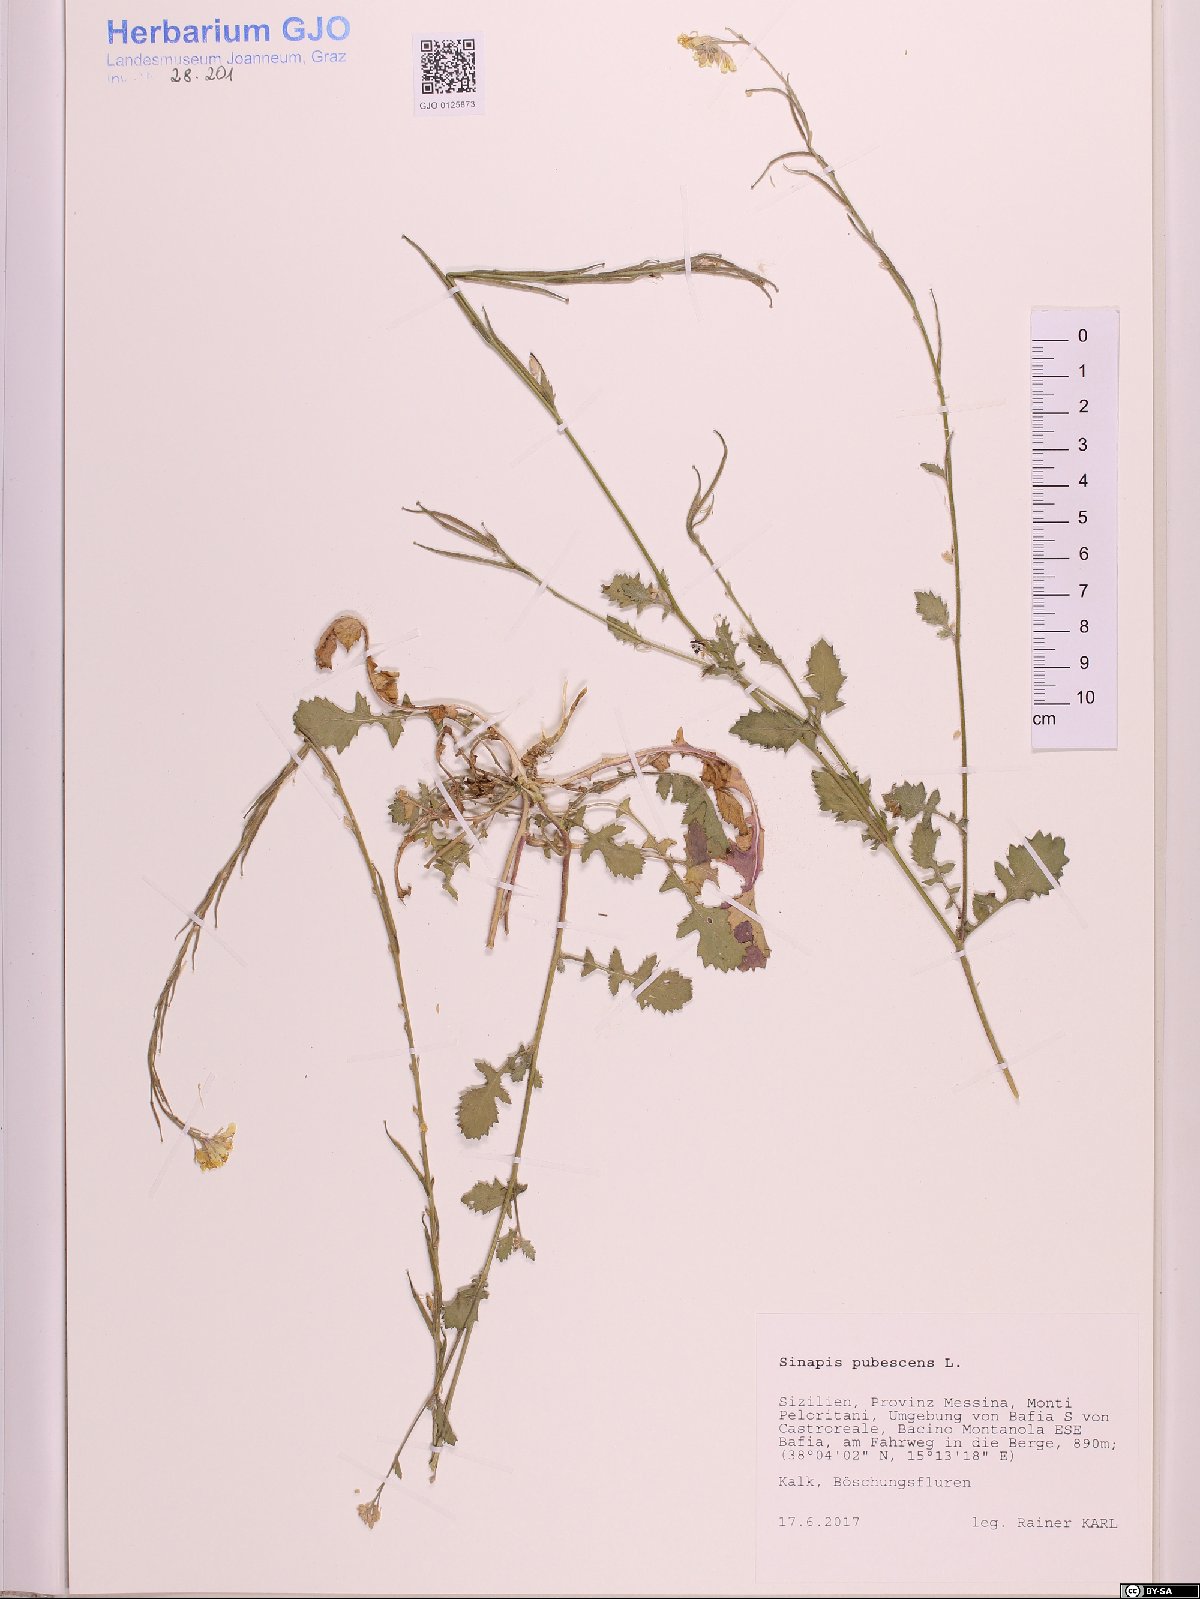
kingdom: Plantae
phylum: Tracheophyta
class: Magnoliopsida
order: Brassicales
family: Brassicaceae
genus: Sinapis
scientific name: Sinapis pubescens
